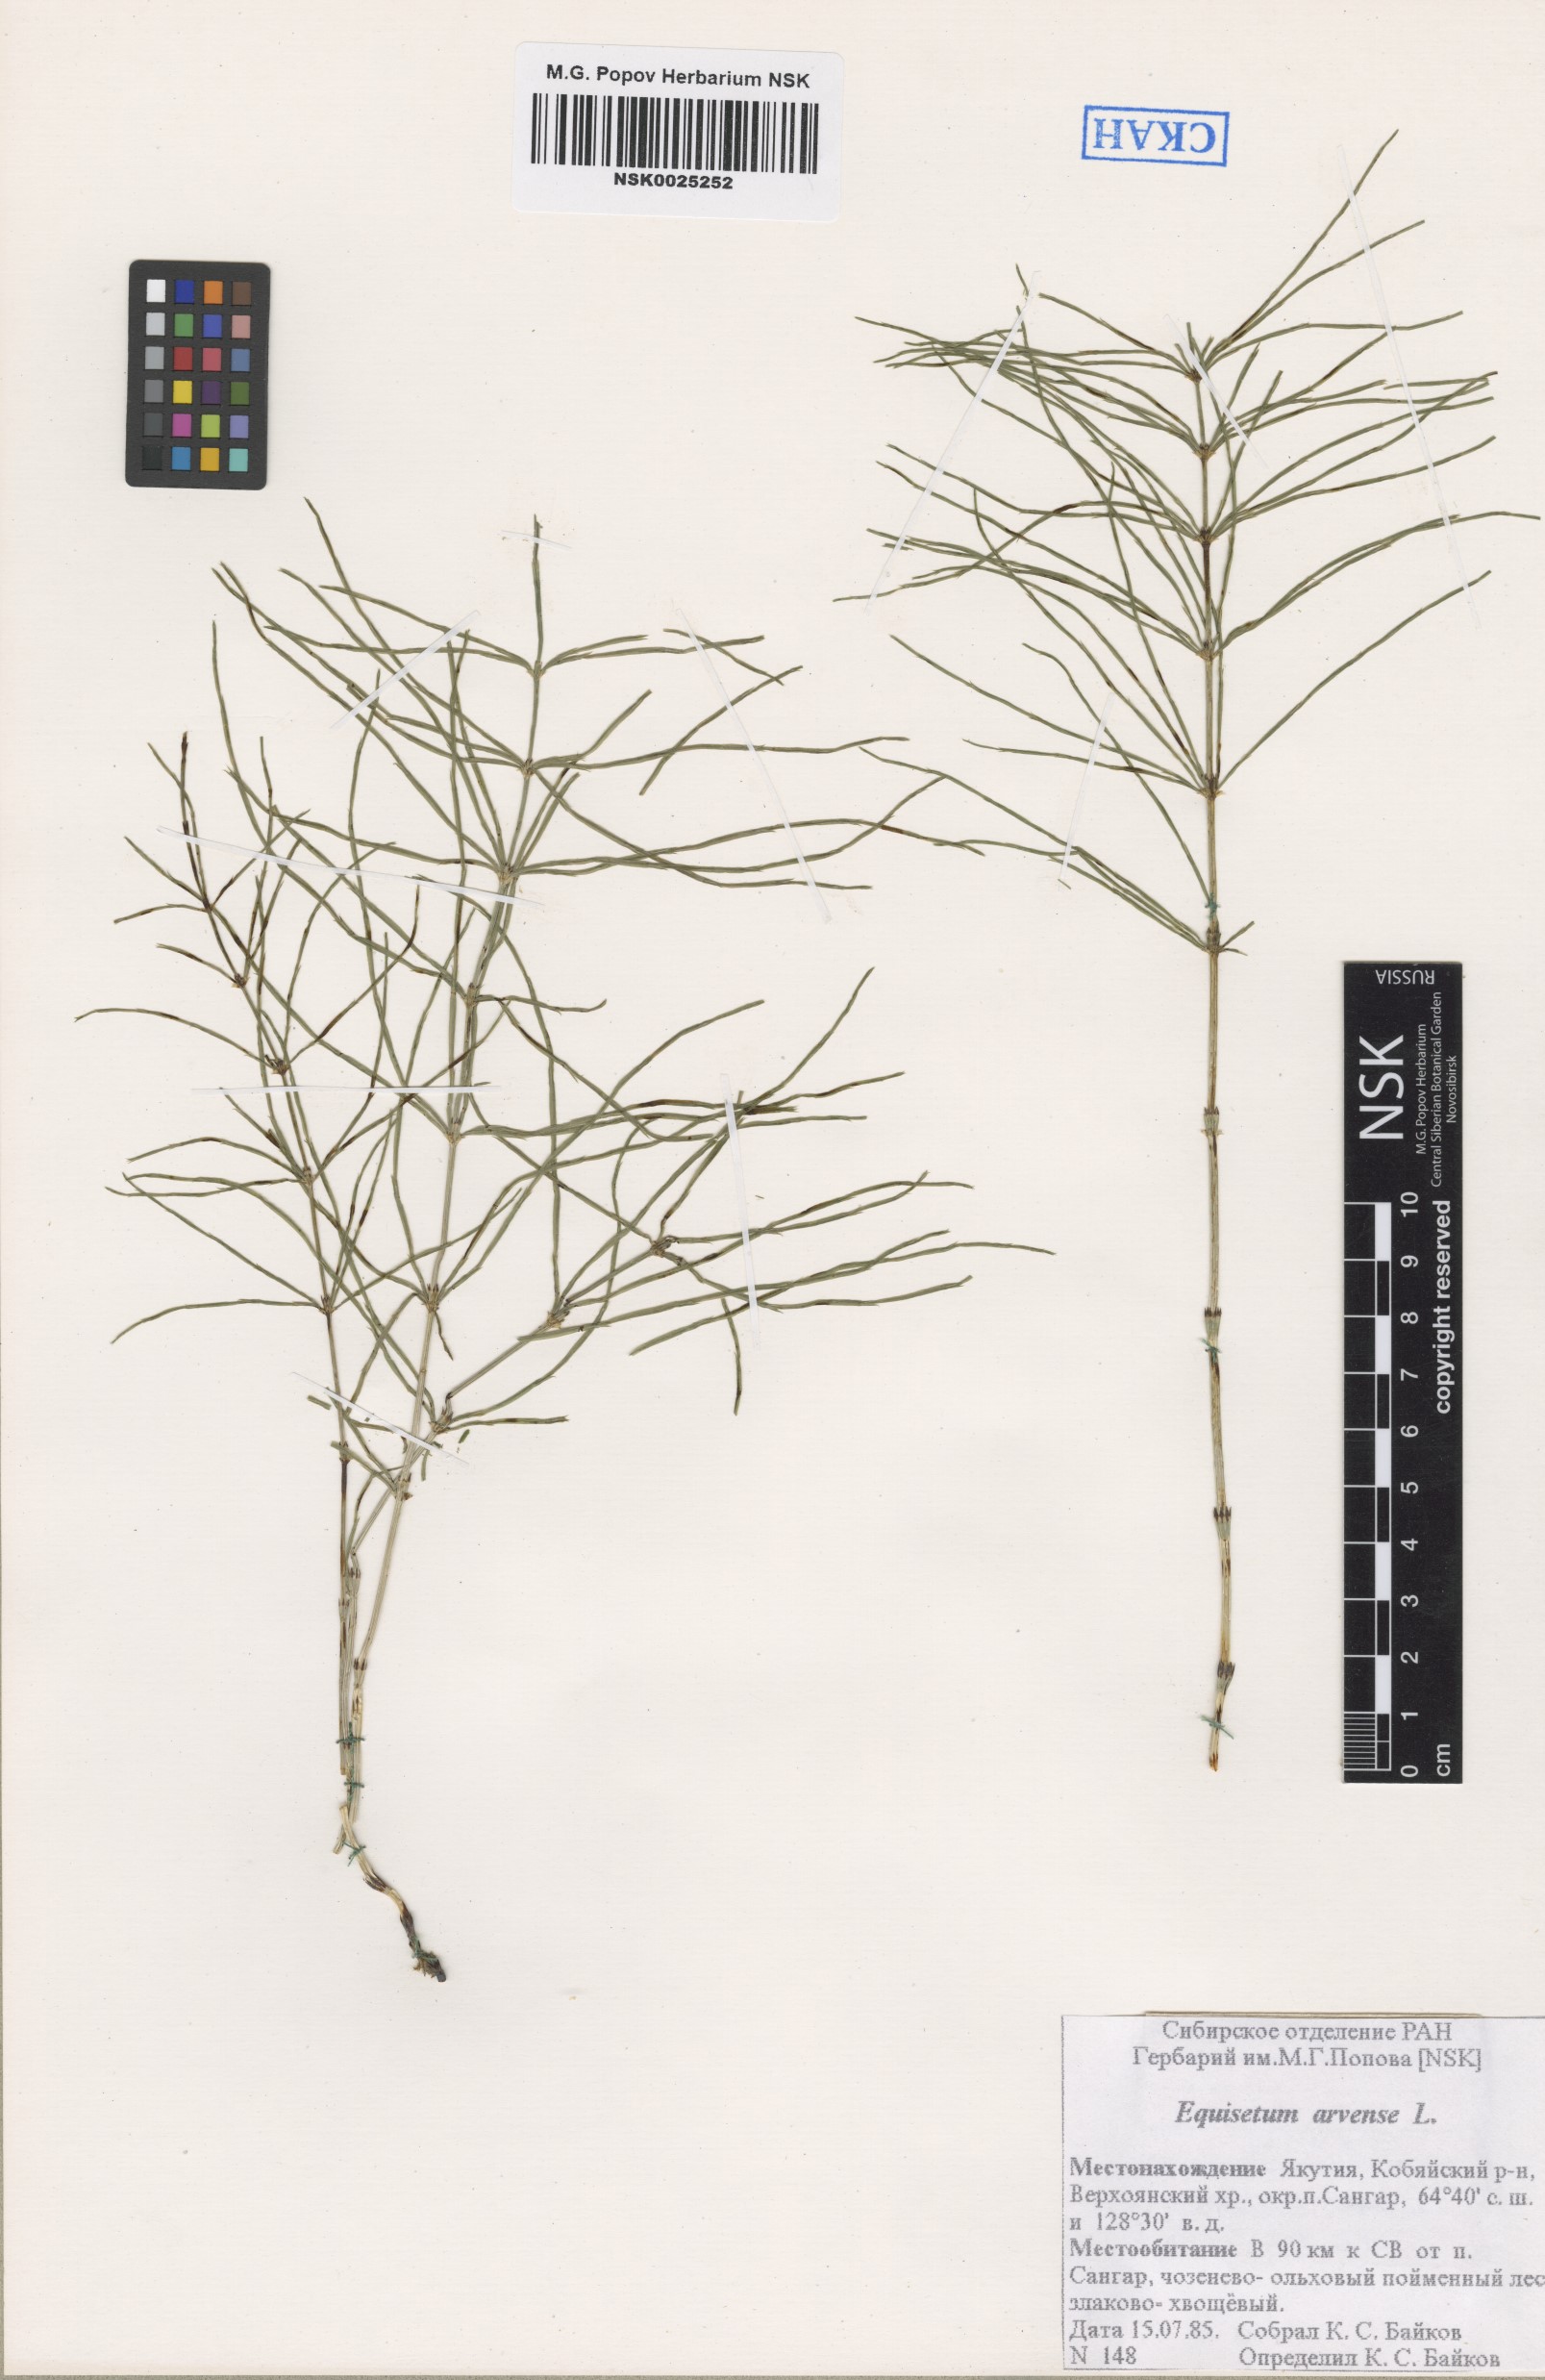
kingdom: Plantae
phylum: Tracheophyta
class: Polypodiopsida
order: Equisetales
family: Equisetaceae
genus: Equisetum
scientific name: Equisetum arvense
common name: Field horsetail
